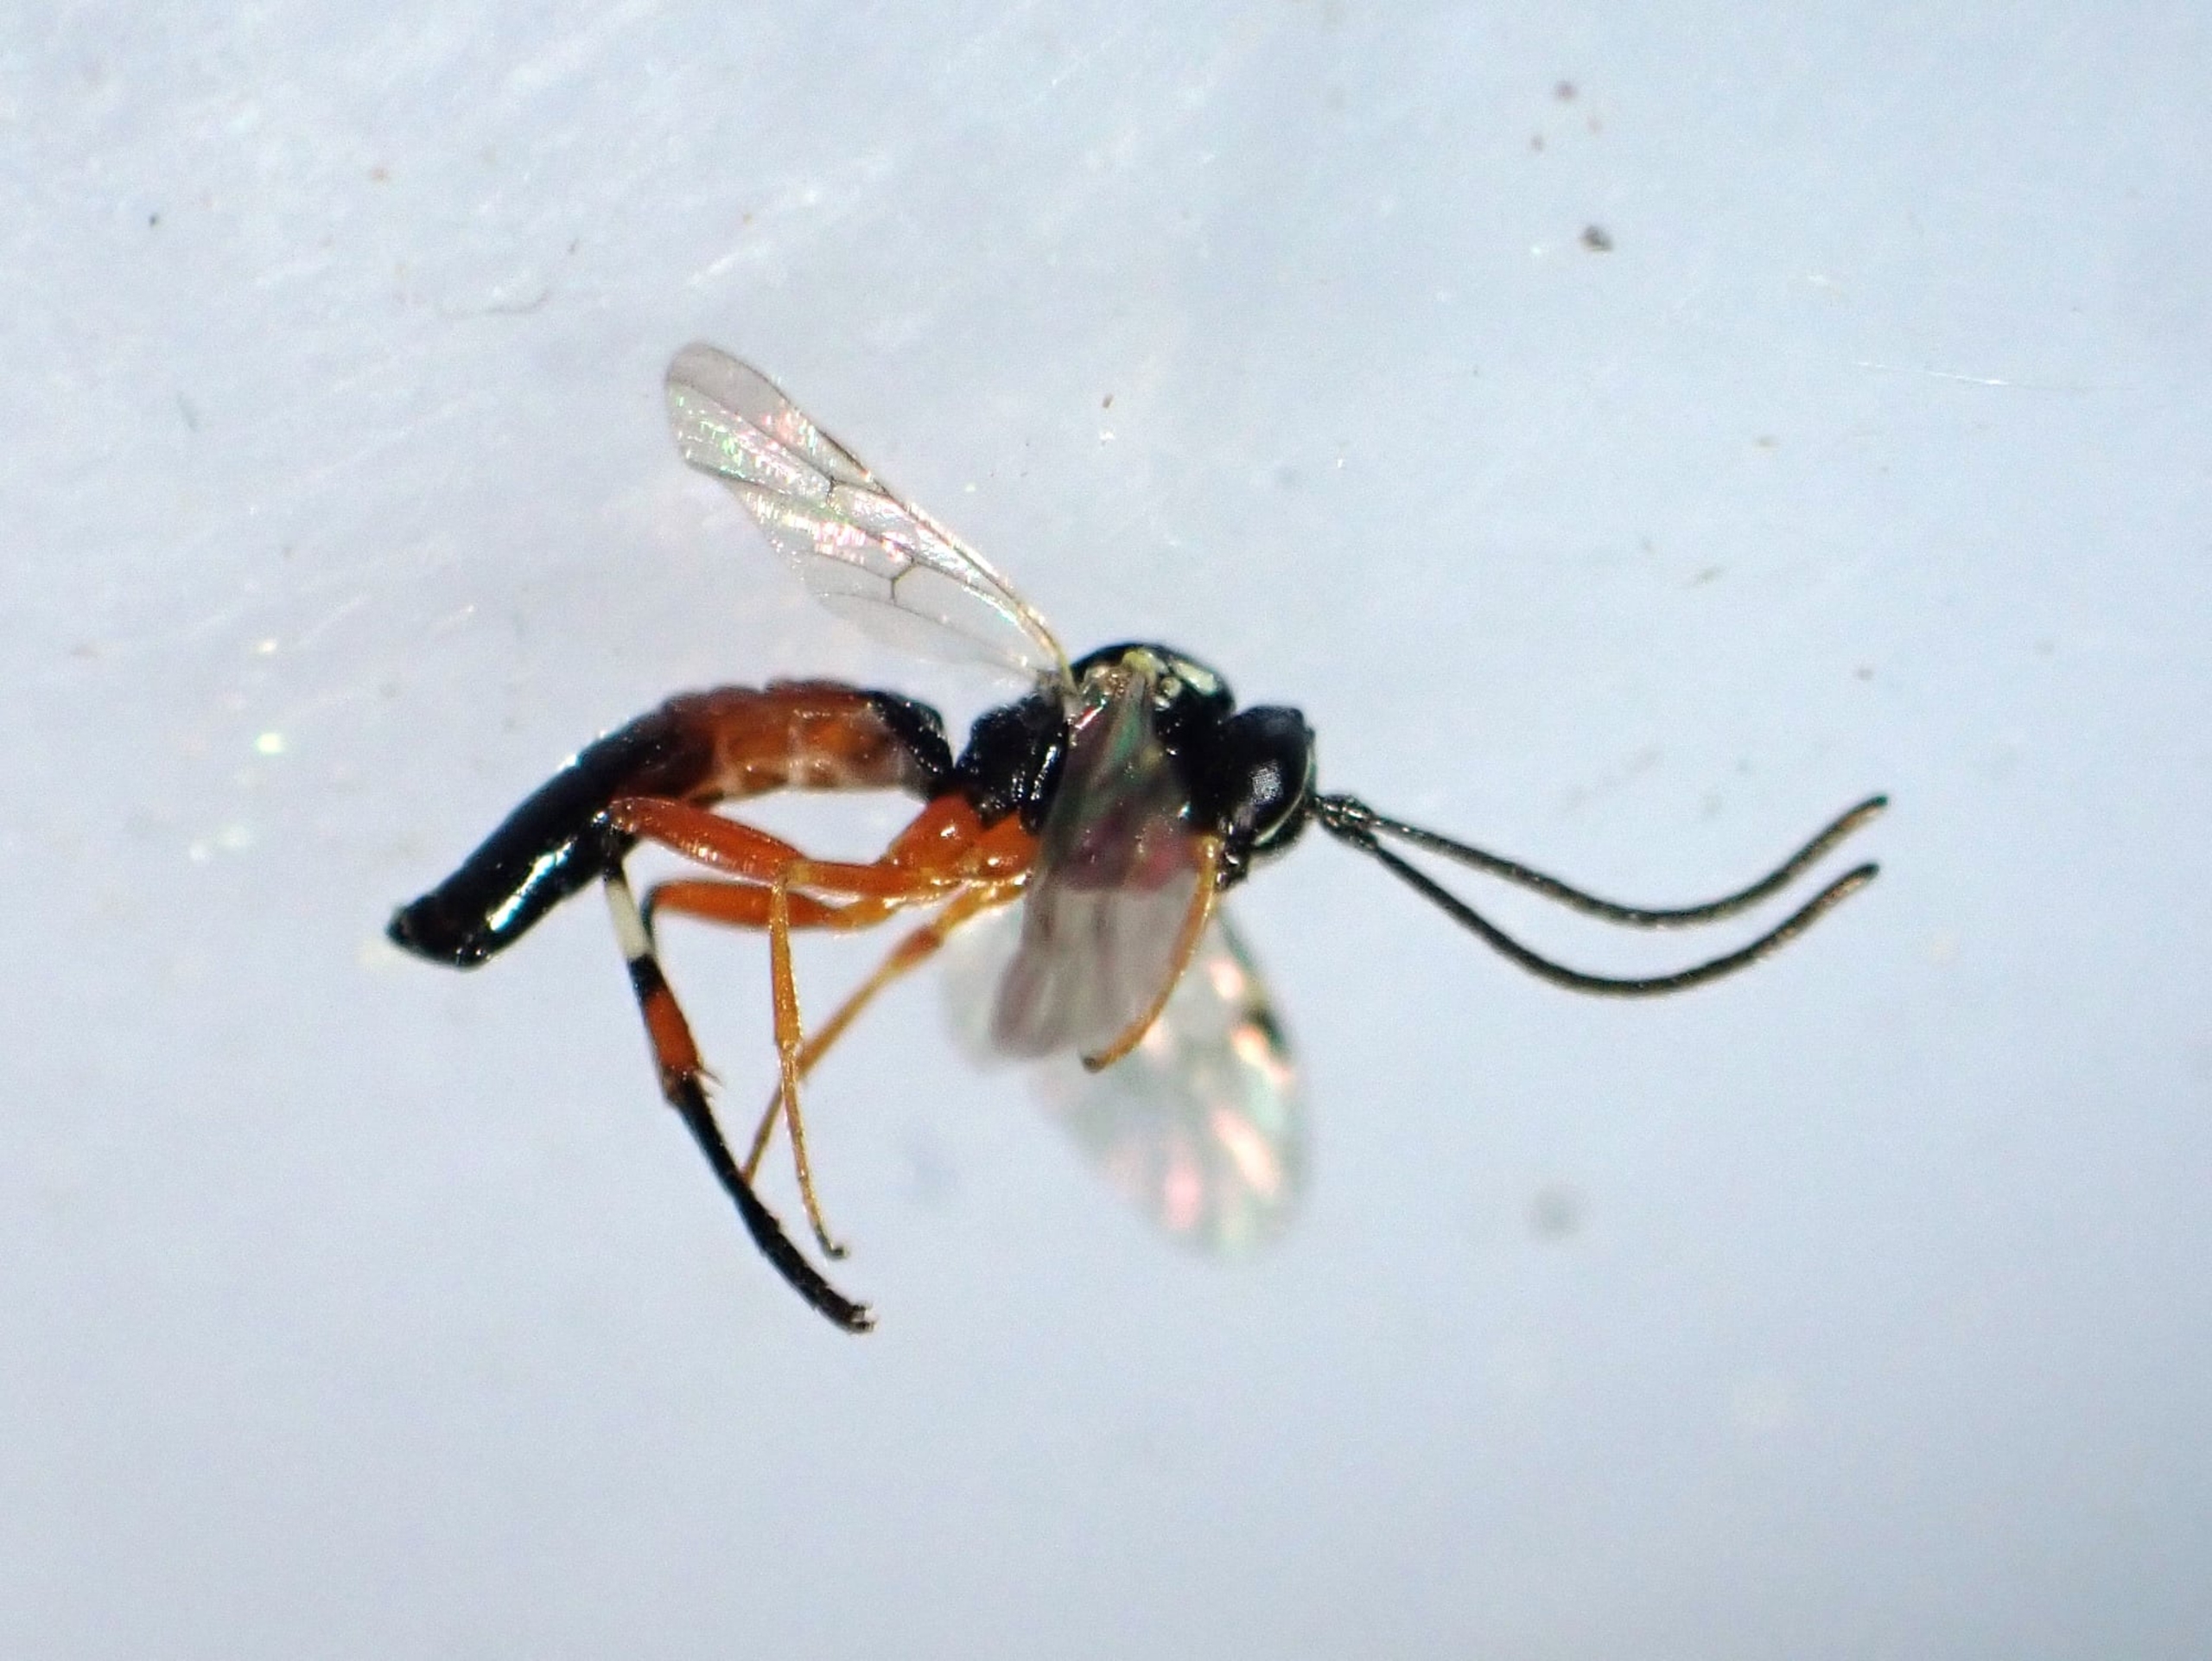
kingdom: Animalia
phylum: Arthropoda
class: Insecta
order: Hymenoptera
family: Ichneumonidae
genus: Diplazon
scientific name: Diplazon laetatorius
